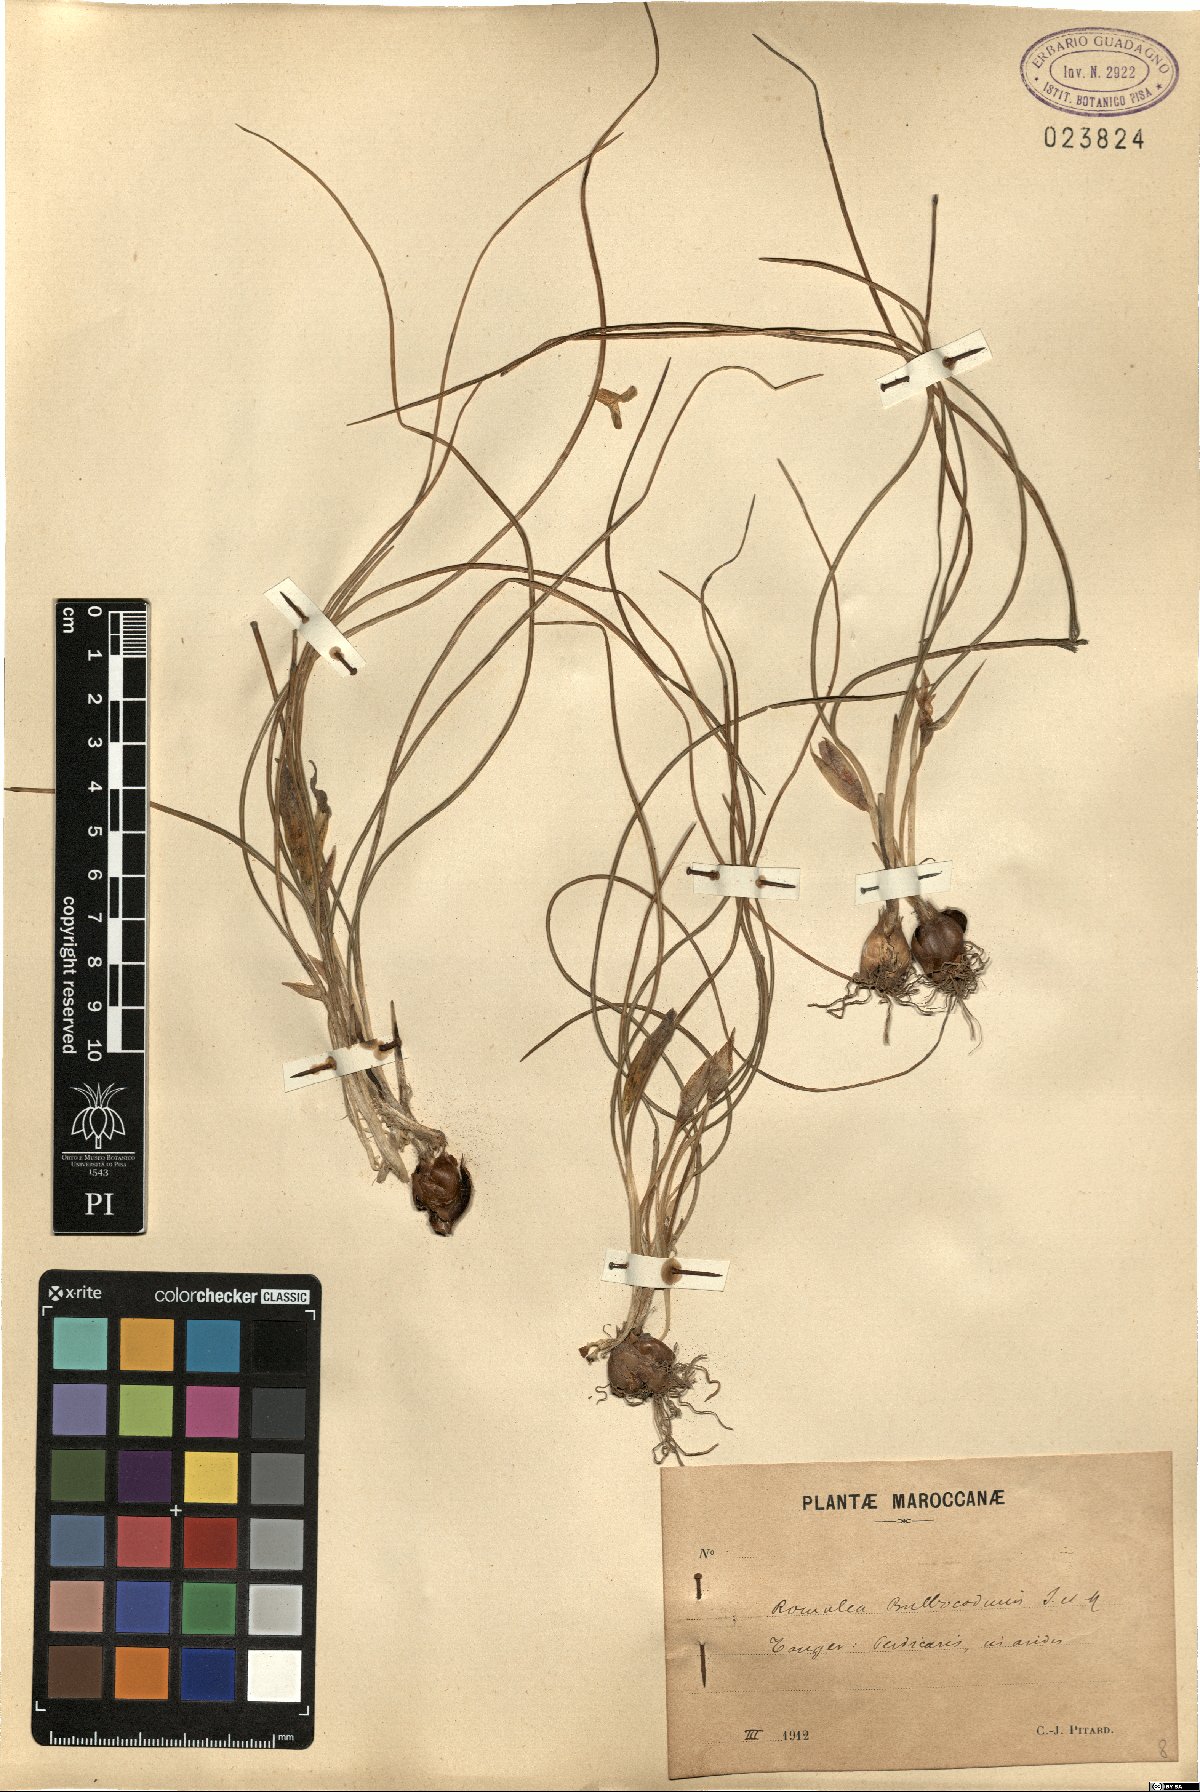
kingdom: Plantae
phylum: Tracheophyta
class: Liliopsida
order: Asparagales
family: Iridaceae
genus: Romulea
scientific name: Romulea bulbocodium
